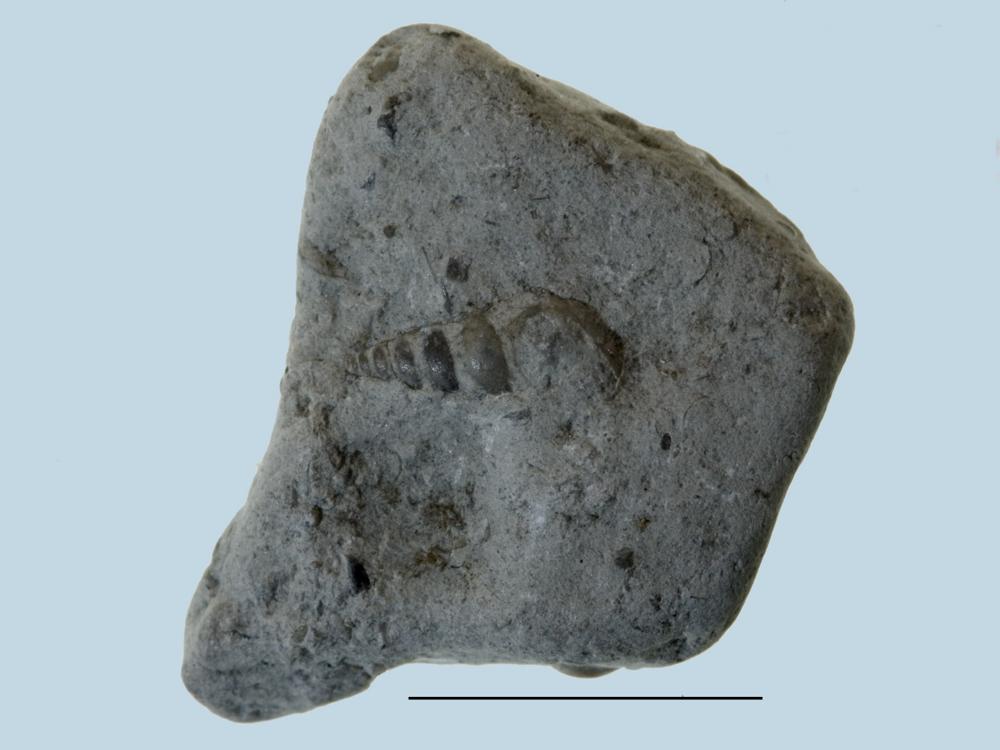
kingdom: Animalia
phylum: Mollusca
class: Gastropoda
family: Loxonematidae
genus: Loxonema
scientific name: Loxonema
